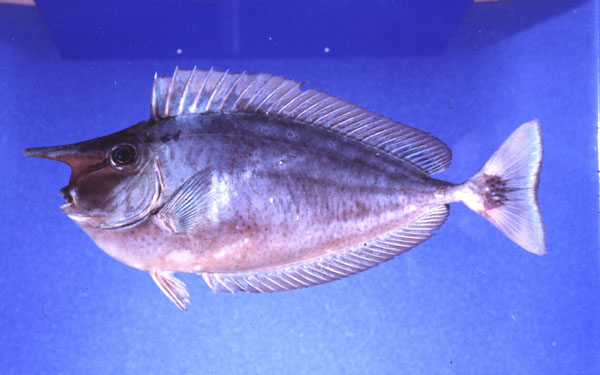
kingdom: Animalia
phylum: Chordata
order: Perciformes
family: Acanthuridae
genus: Naso
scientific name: Naso brevirostris
